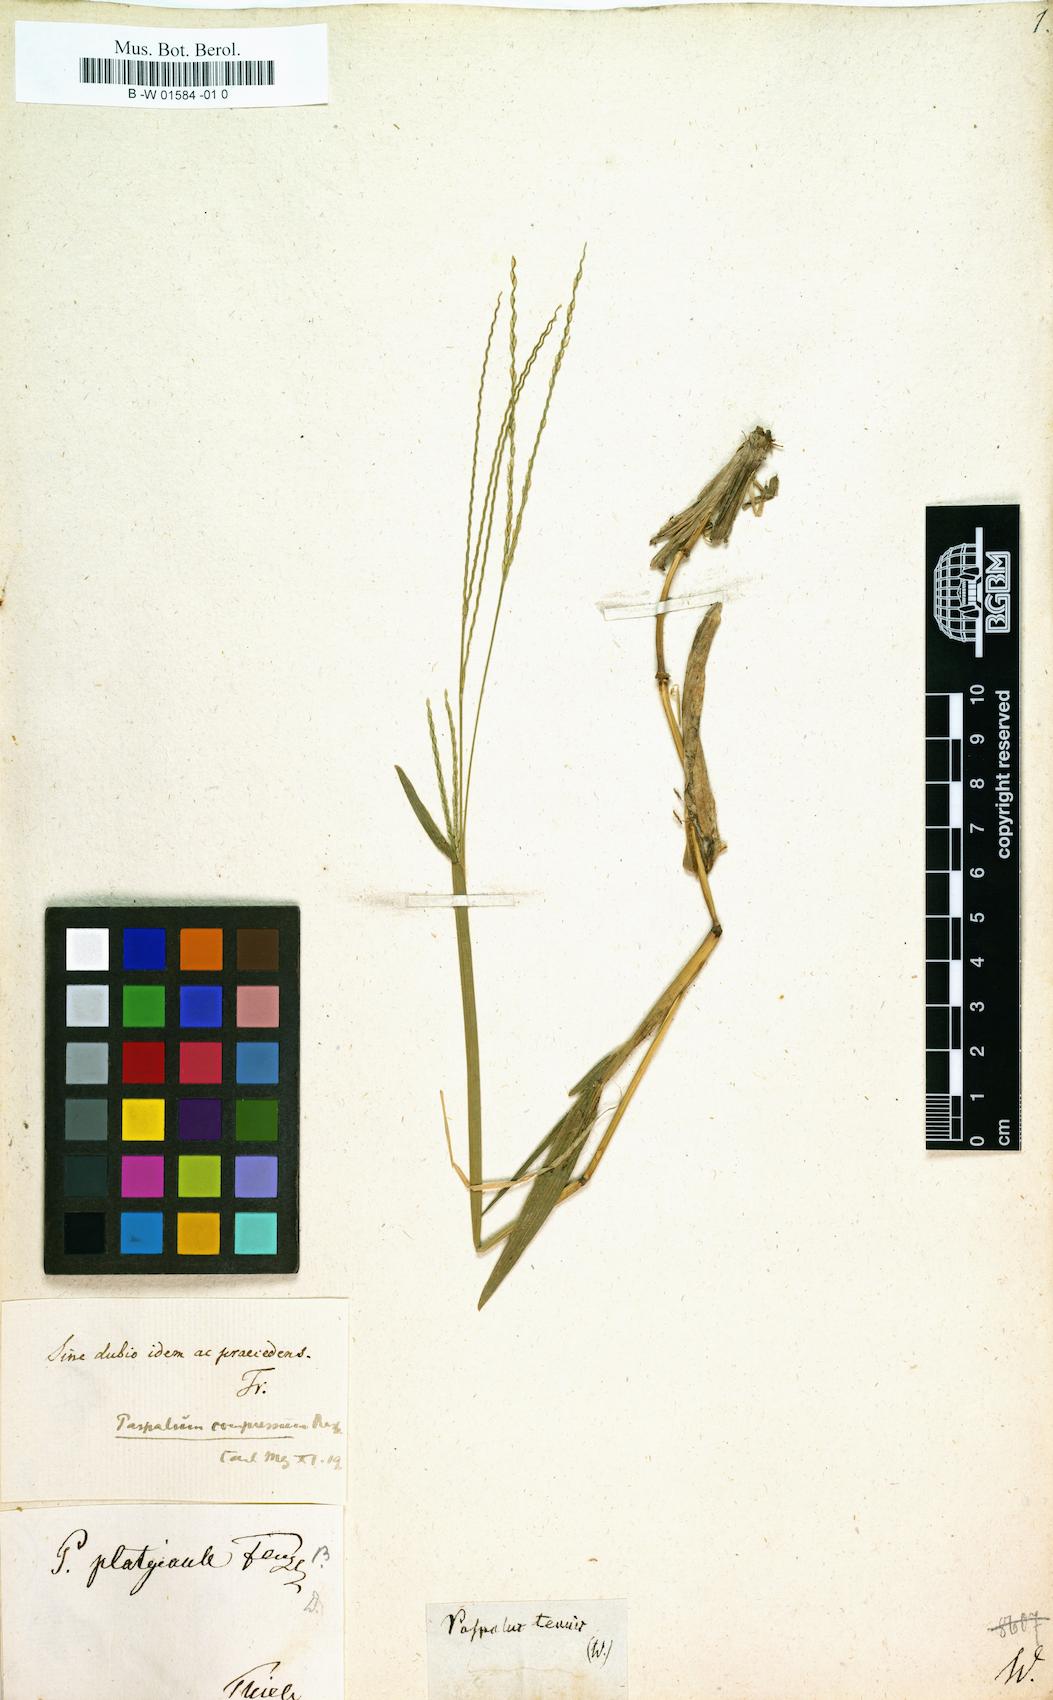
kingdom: Plantae
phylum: Tracheophyta
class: Liliopsida
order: Poales
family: Poaceae
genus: Paspalus
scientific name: Paspalus
